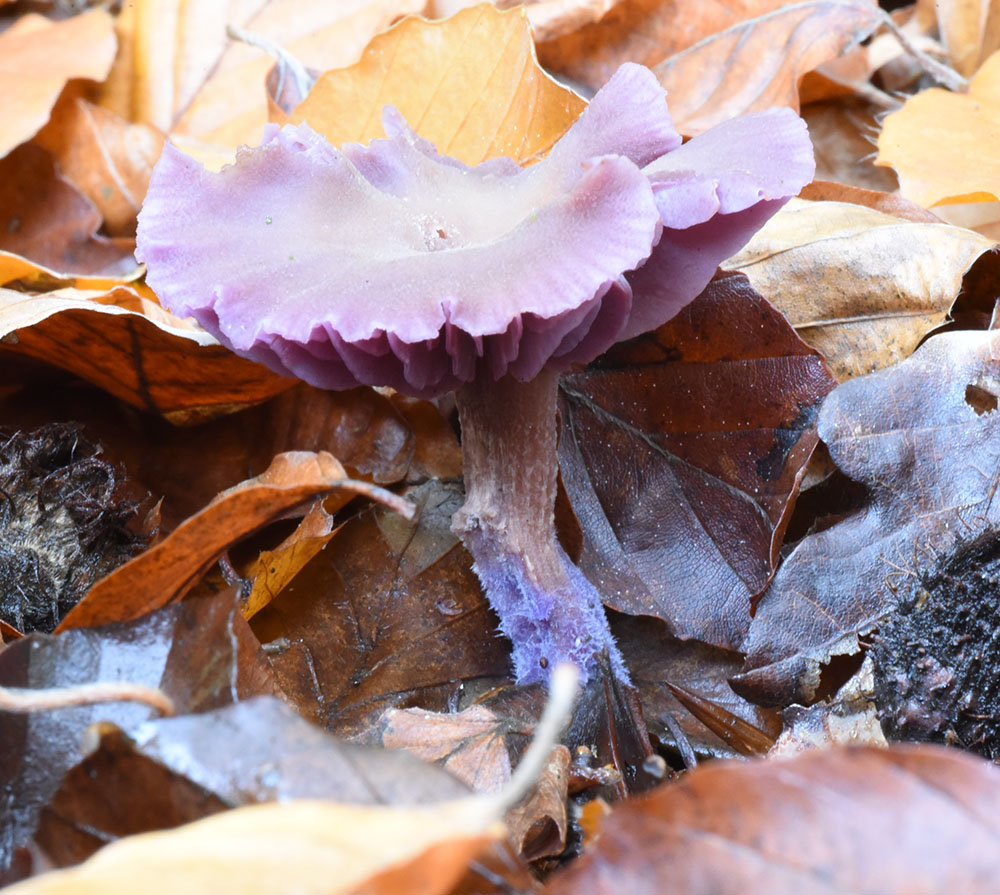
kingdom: Fungi
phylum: Basidiomycota
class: Agaricomycetes
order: Agaricales
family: Hydnangiaceae
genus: Laccaria
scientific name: Laccaria amethystina
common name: Amethyst deceiver
